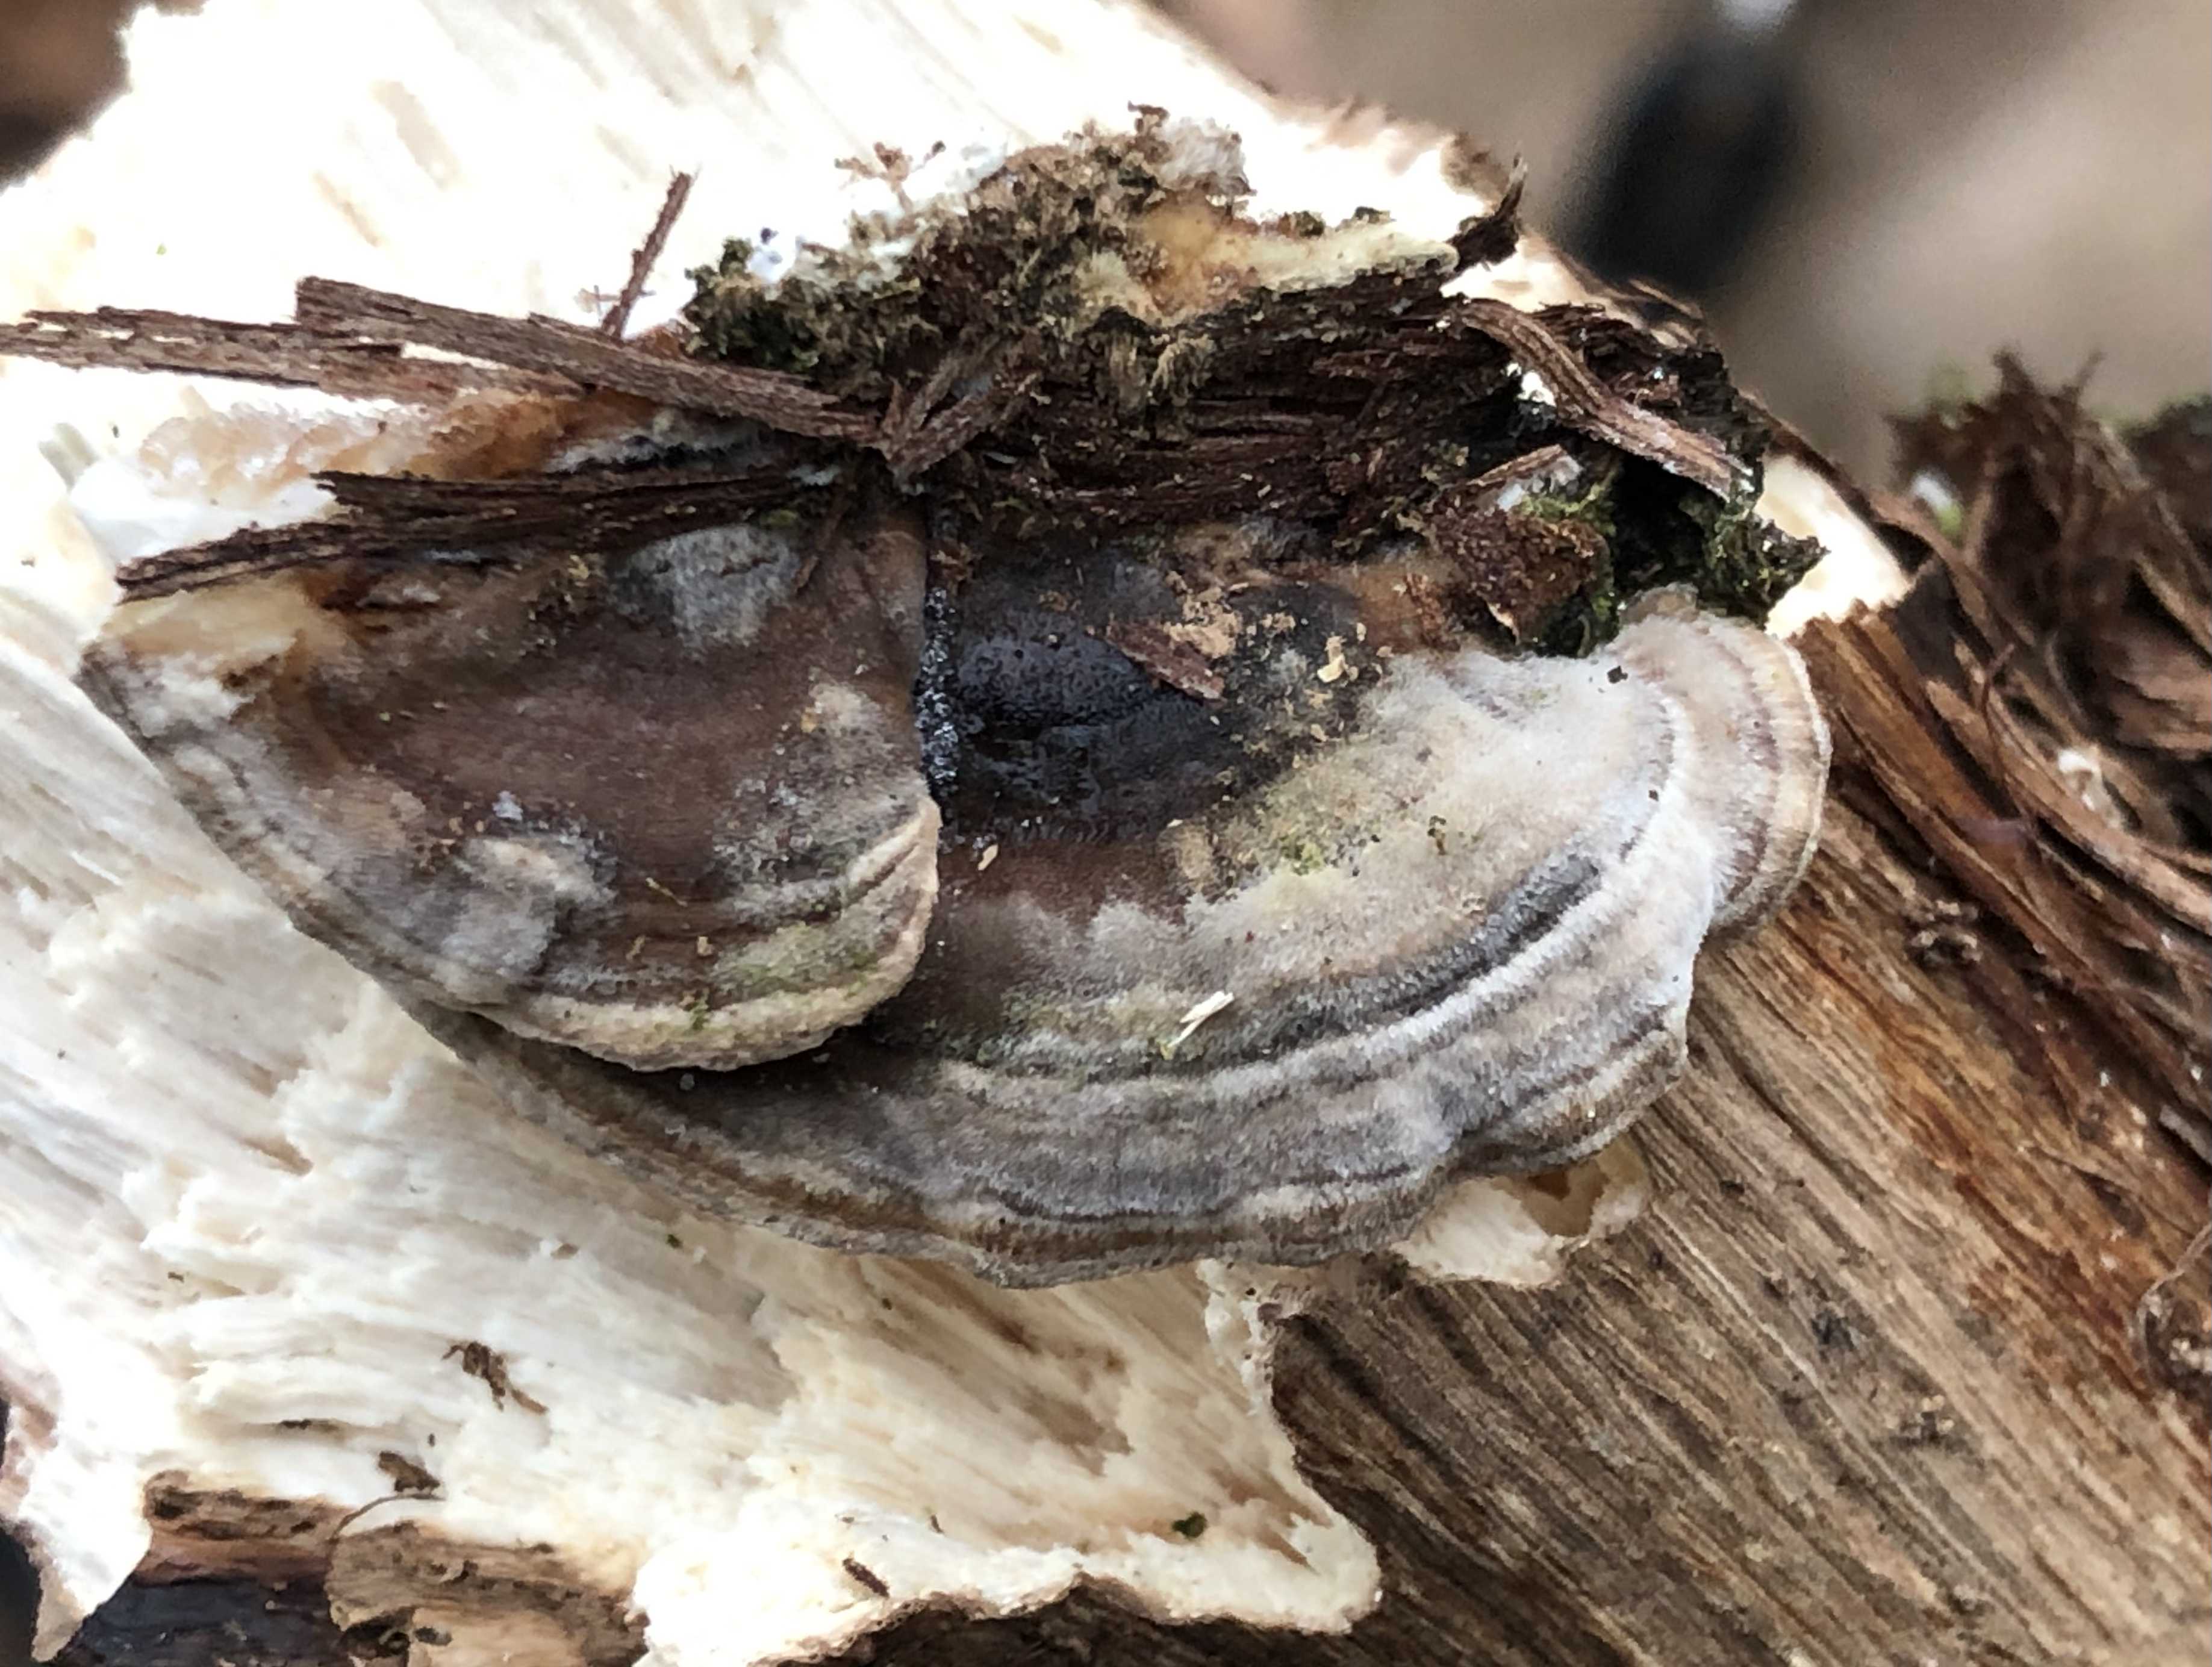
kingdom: Fungi
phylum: Basidiomycota
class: Agaricomycetes
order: Polyporales
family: Polyporaceae
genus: Trametes
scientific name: Trametes versicolor
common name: broget læderporesvamp
